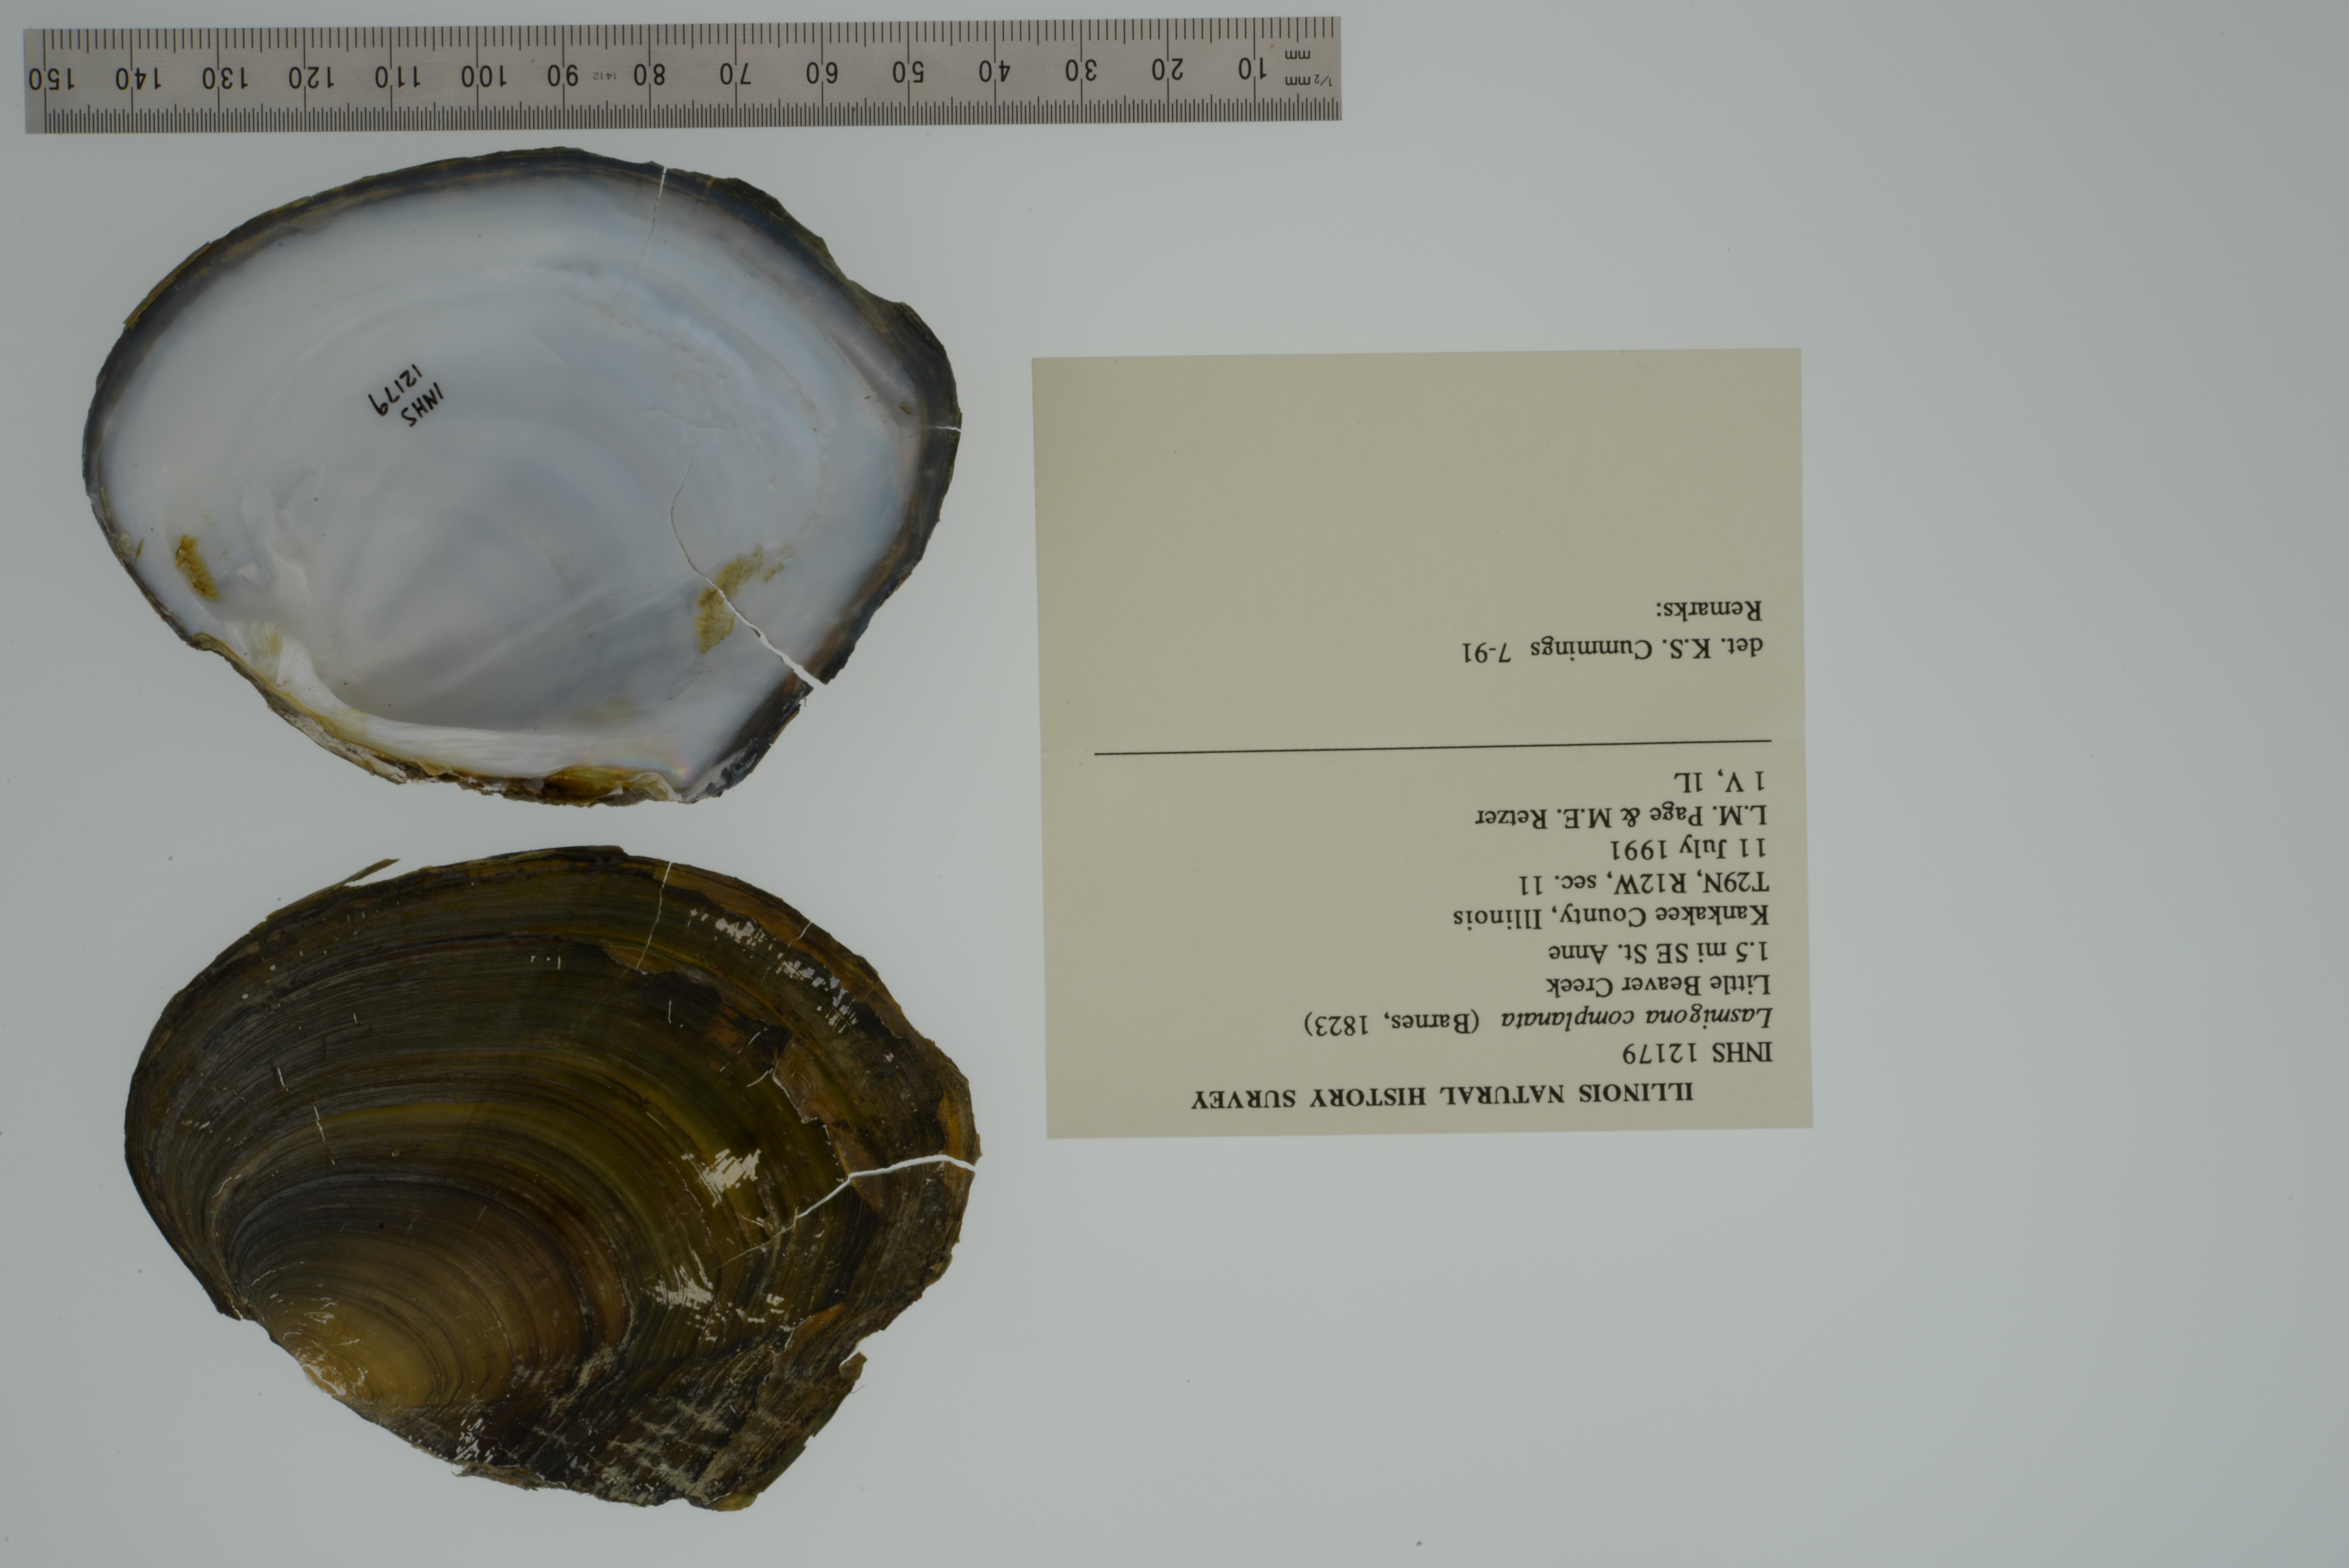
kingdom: Animalia
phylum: Mollusca
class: Bivalvia
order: Unionida
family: Unionidae
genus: Lasmigona
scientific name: Lasmigona complanata
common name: White heelsplitter
